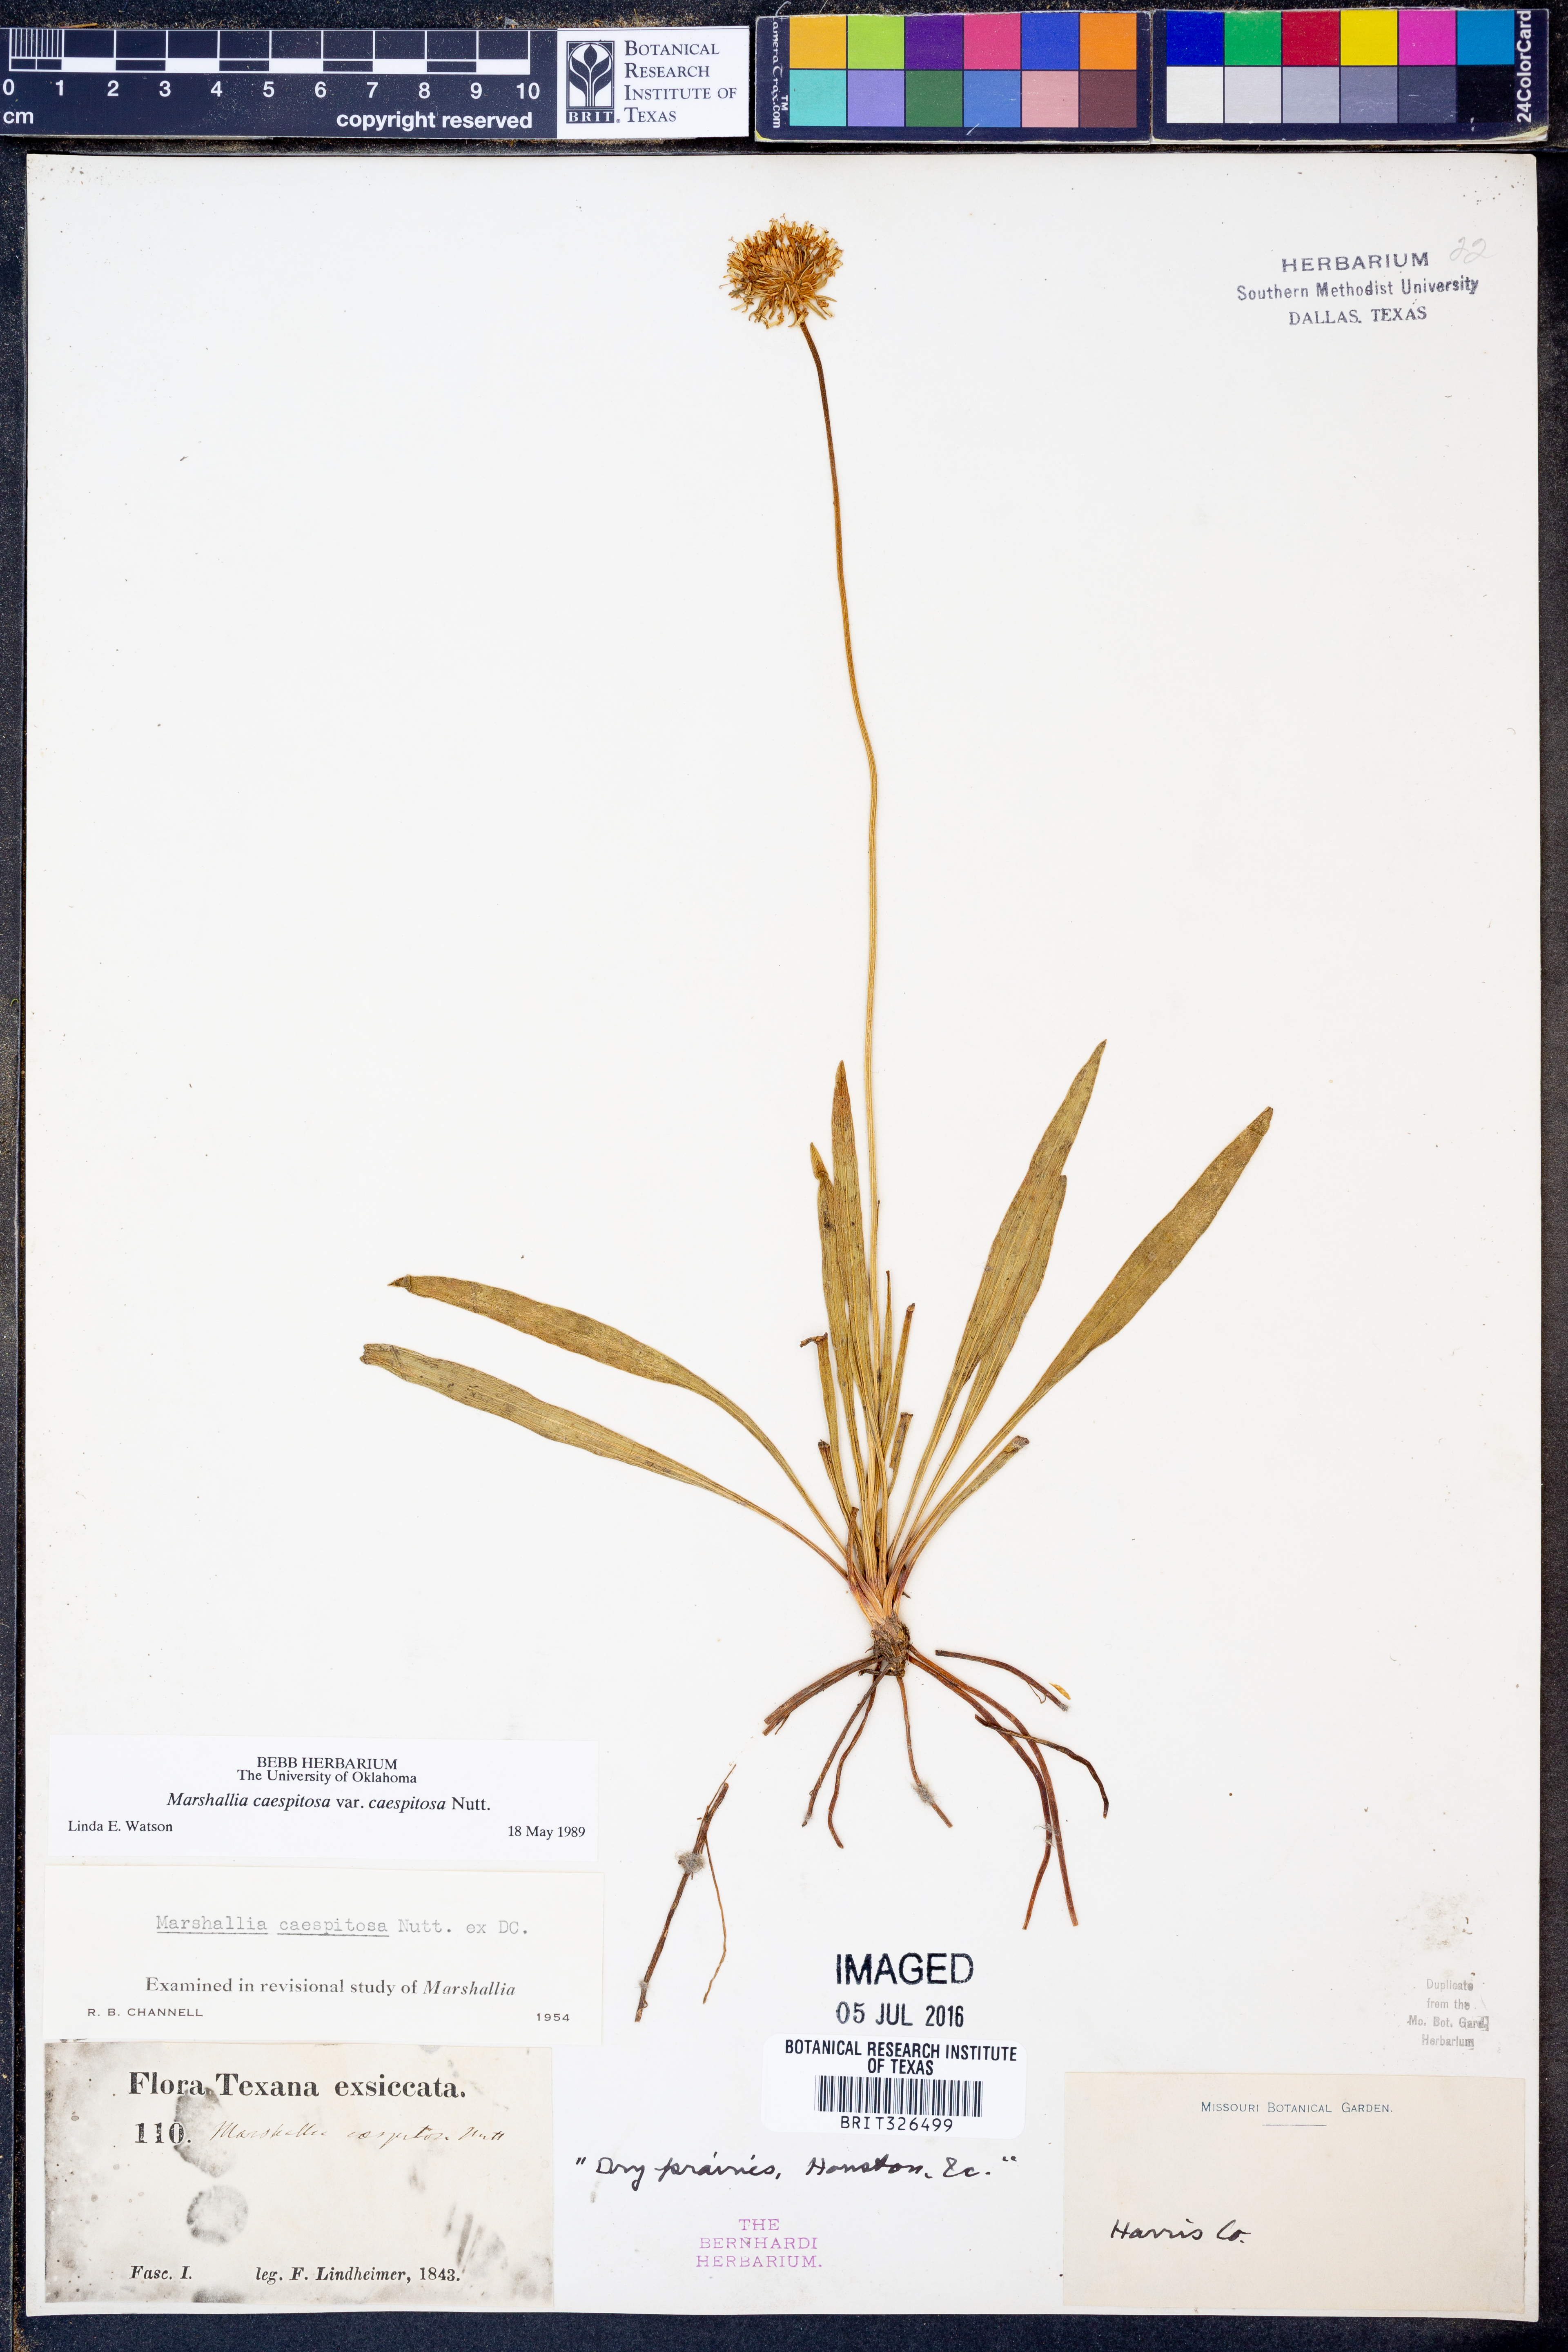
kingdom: Plantae
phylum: Tracheophyta
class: Magnoliopsida
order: Asterales
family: Asteraceae
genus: Marshallia
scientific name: Marshallia caespitosa
